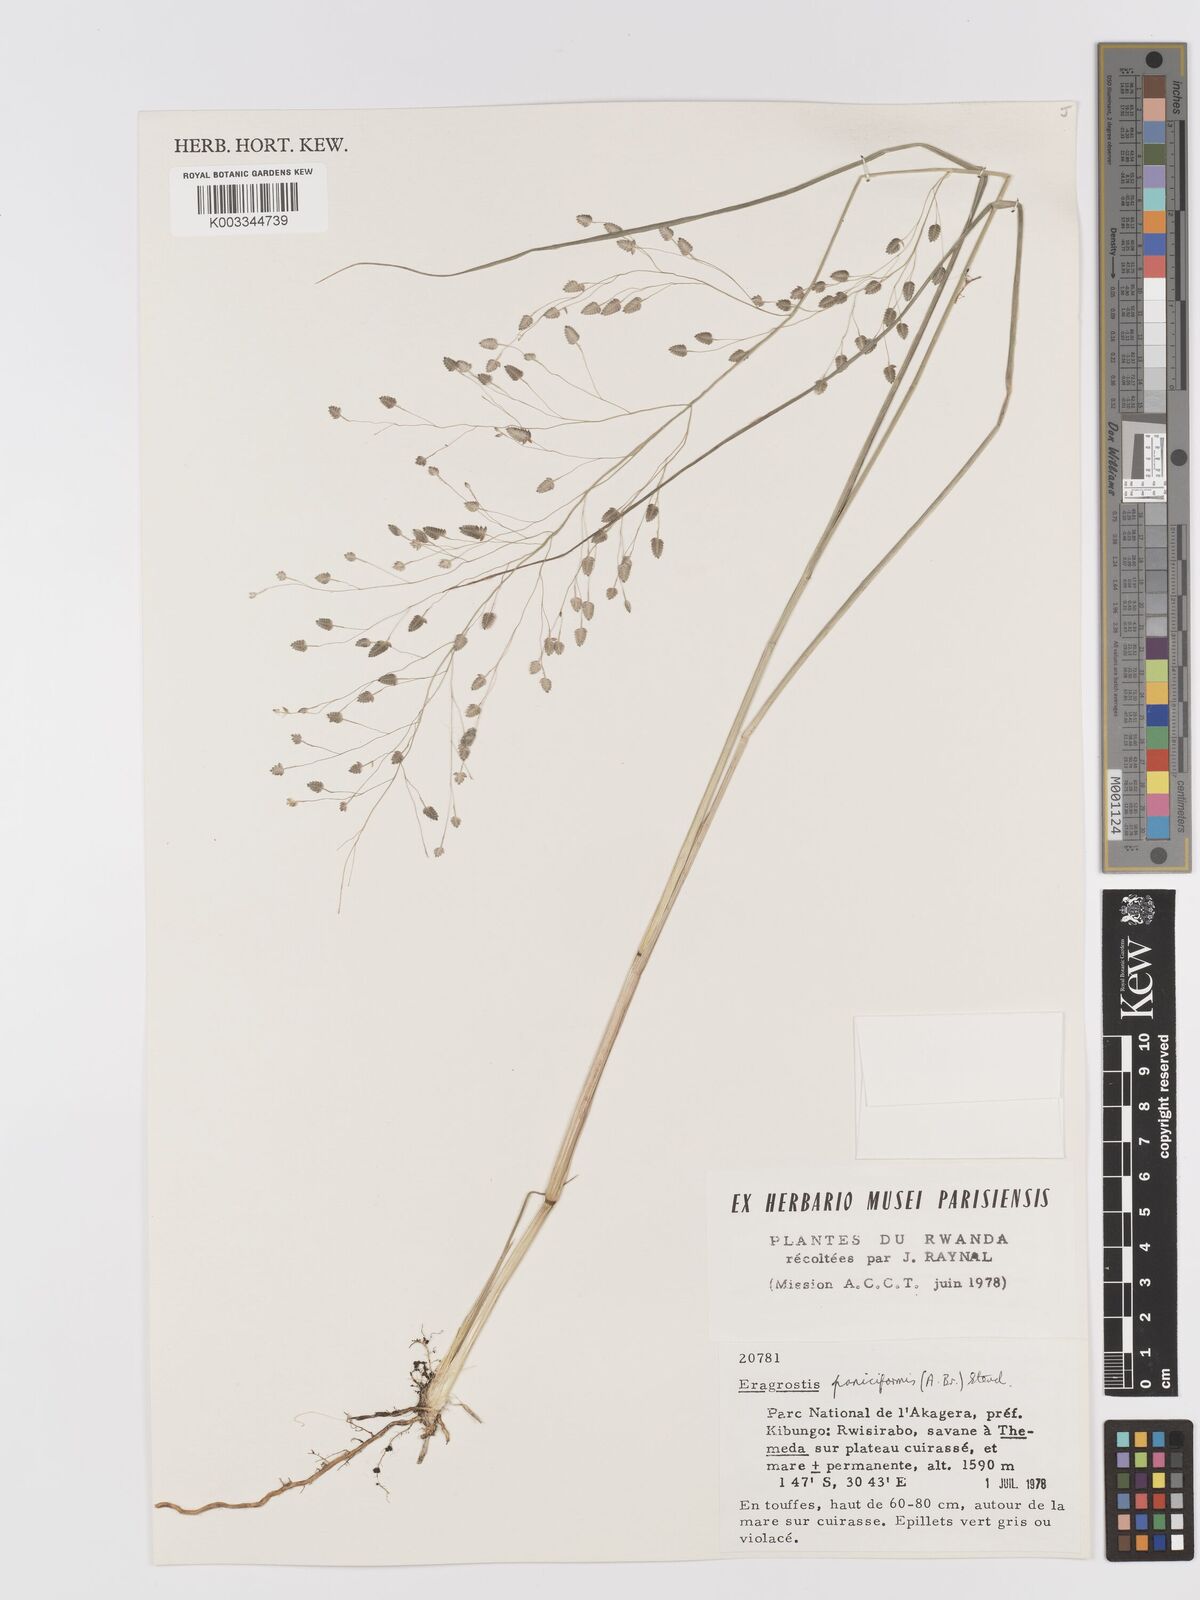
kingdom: Plantae
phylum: Tracheophyta
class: Liliopsida
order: Poales
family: Poaceae
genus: Eragrostis
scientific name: Eragrostis paniciformis
